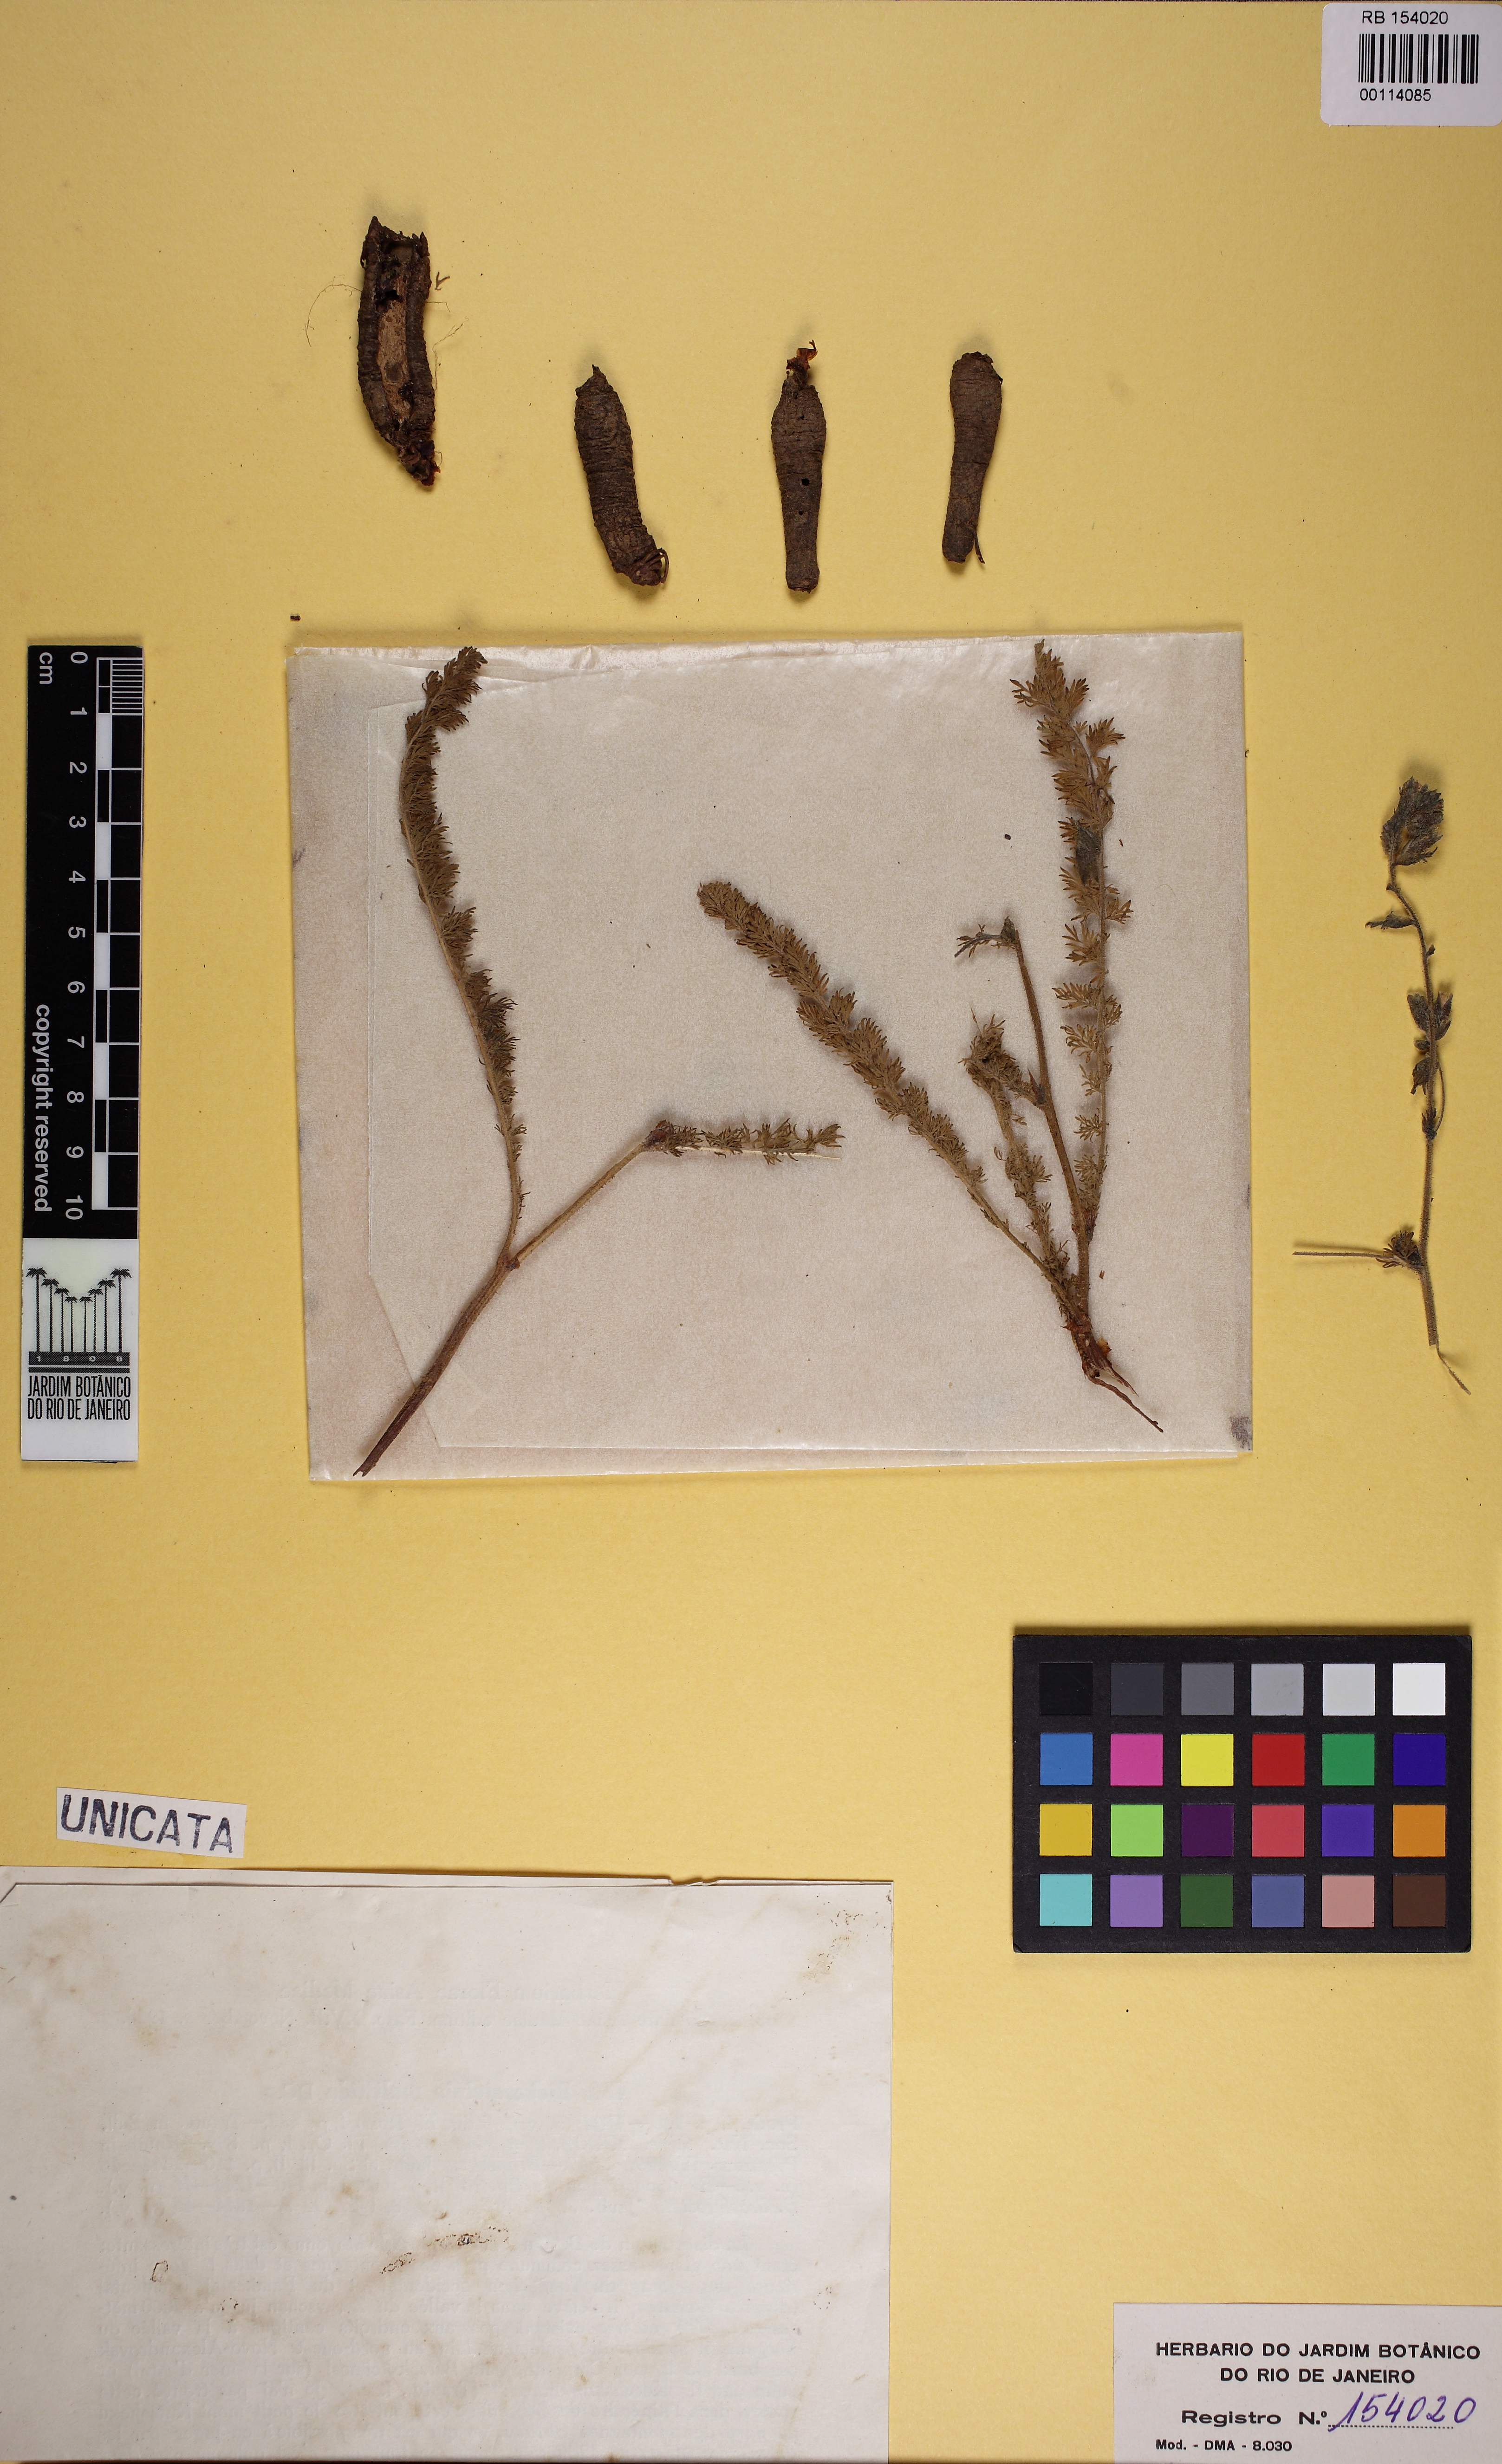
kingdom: Plantae
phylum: Tracheophyta
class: Magnoliopsida
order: Sapindales
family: Biebersteiniaceae
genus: Biebersteinia
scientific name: Biebersteinia multifida
